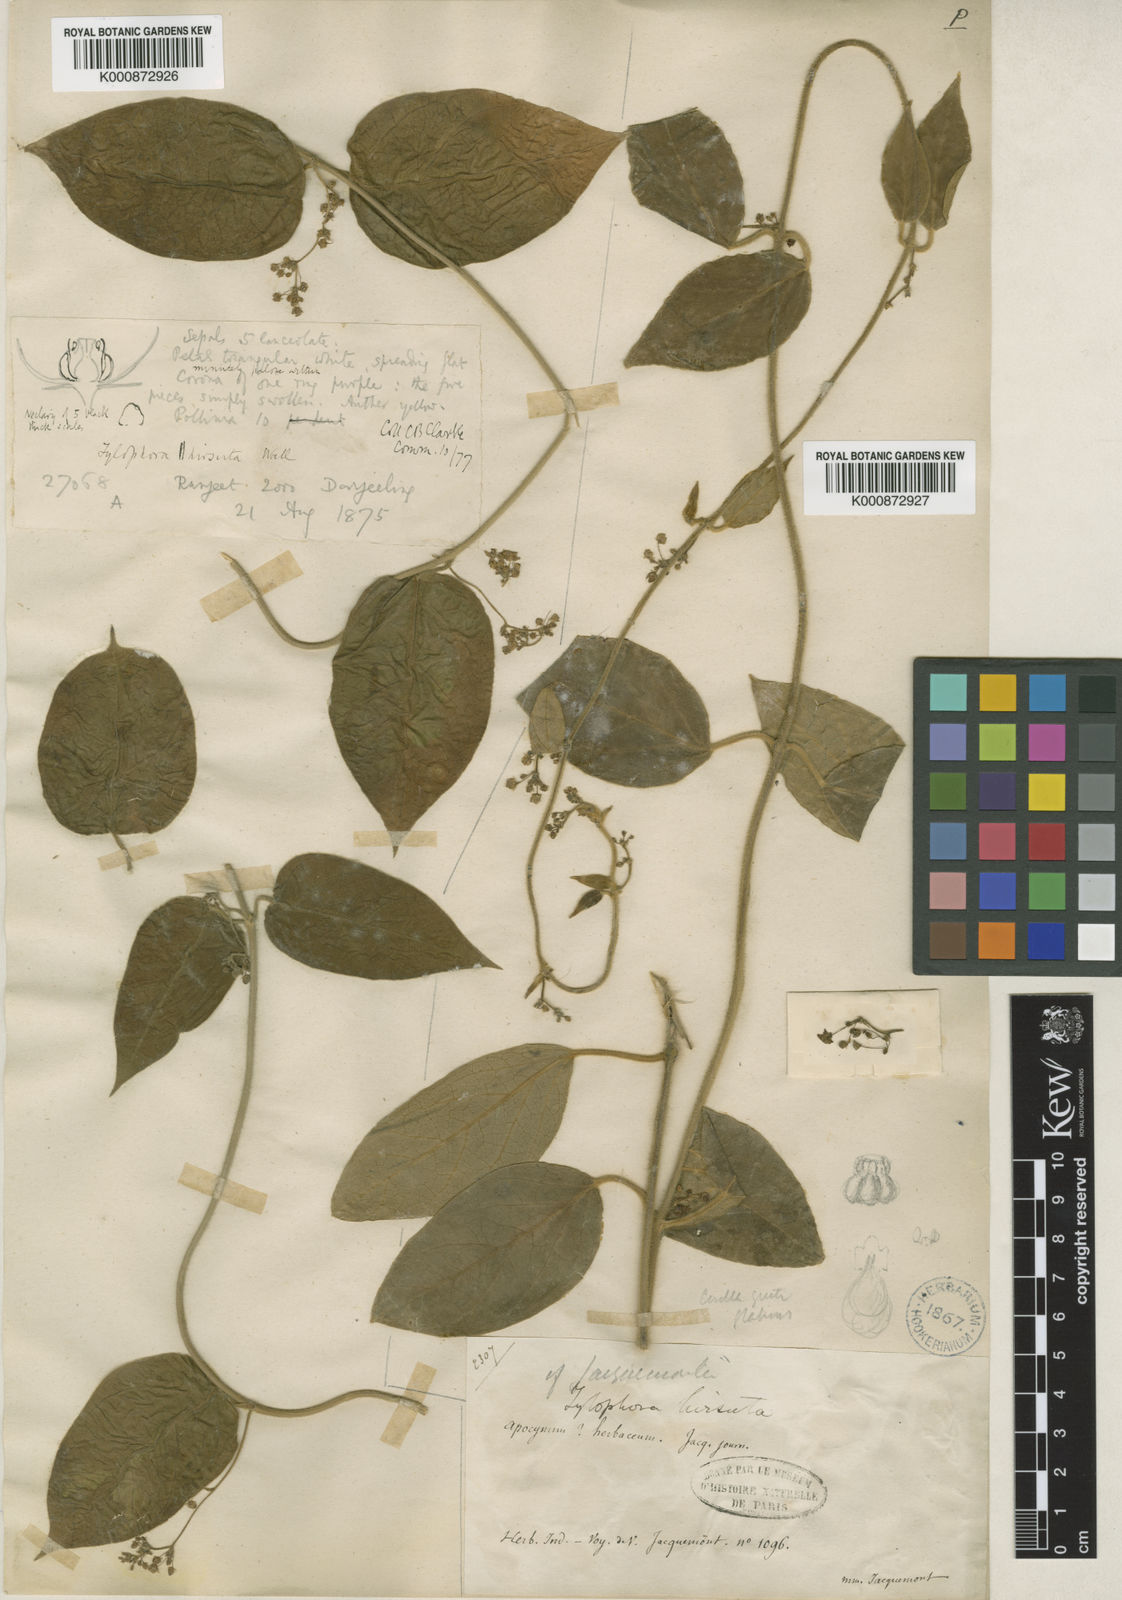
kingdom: Plantae
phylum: Tracheophyta
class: Magnoliopsida
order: Gentianales
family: Apocynaceae
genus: Vincetoxicum
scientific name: Vincetoxicum hirsutum
